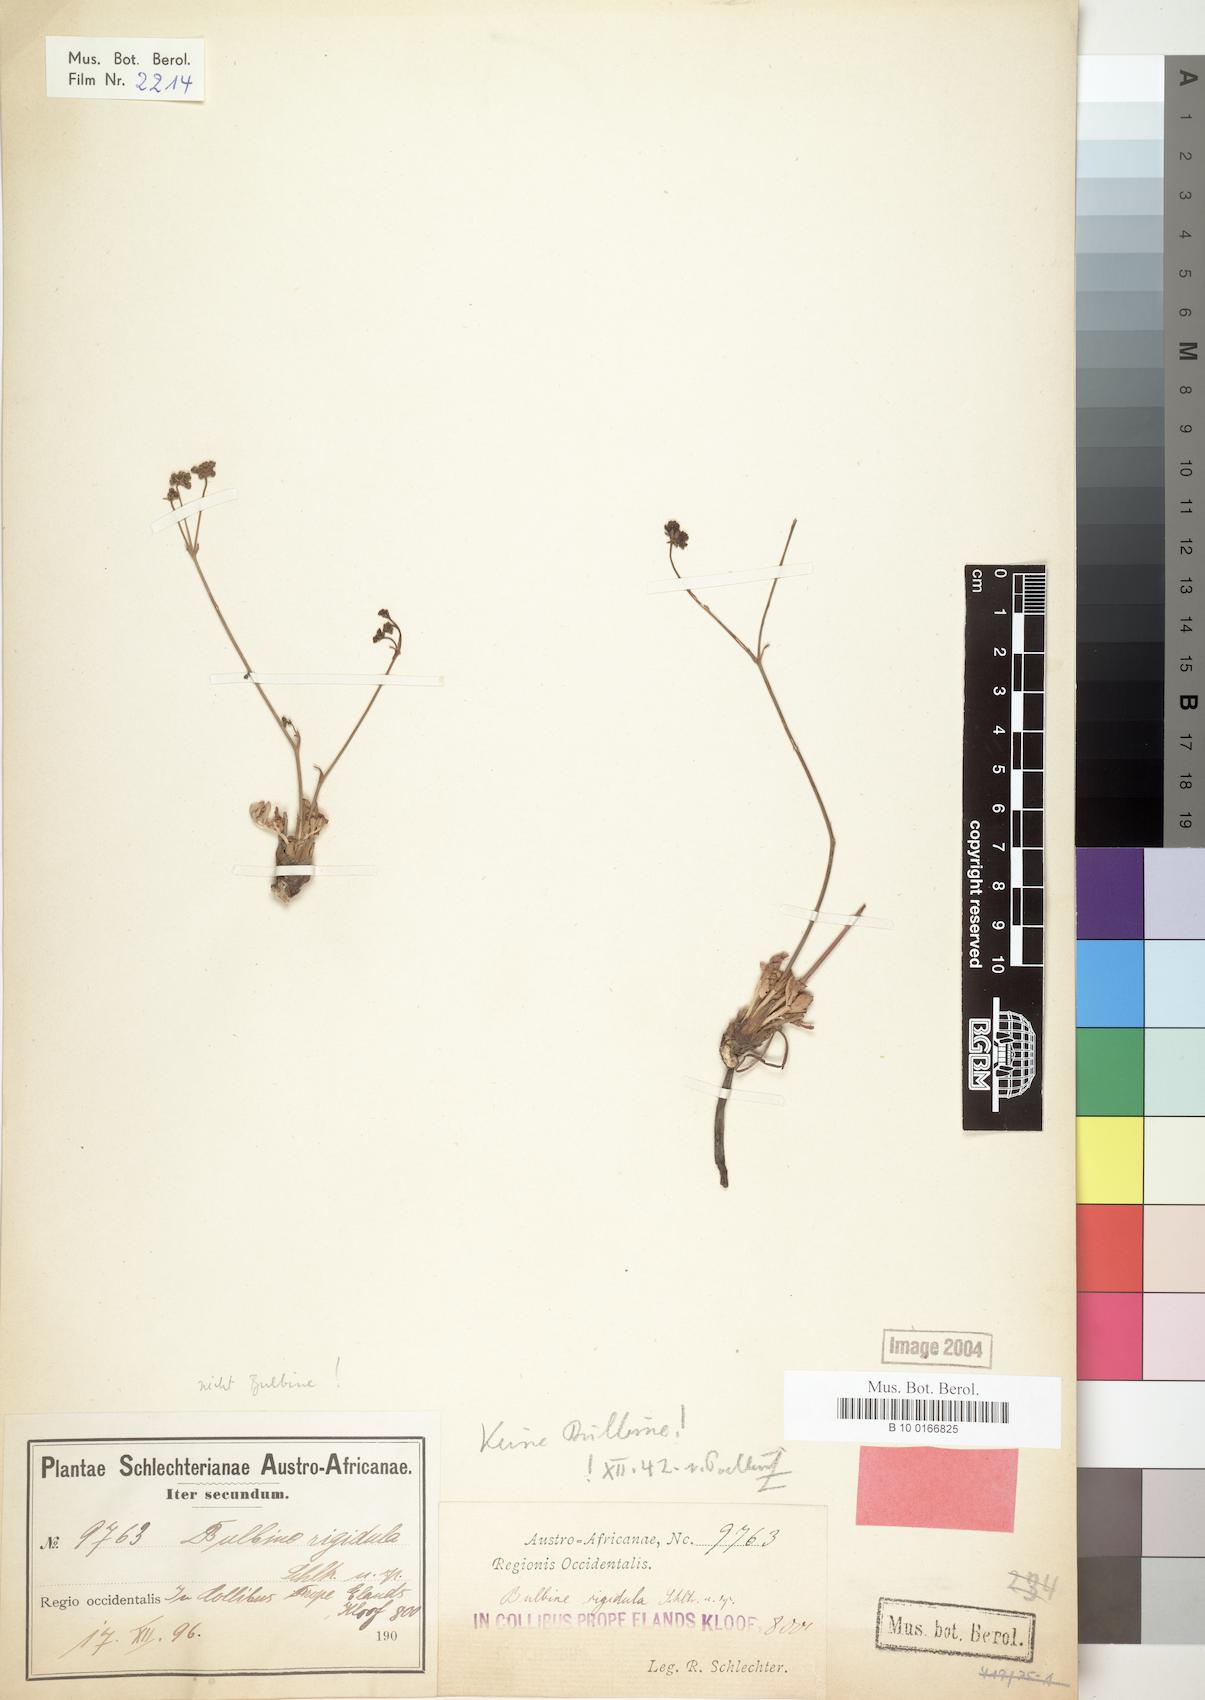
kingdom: Plantae
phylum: Tracheophyta
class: Liliopsida
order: Asparagales
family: Asphodelaceae
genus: Bulbine
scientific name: Bulbine favosa
